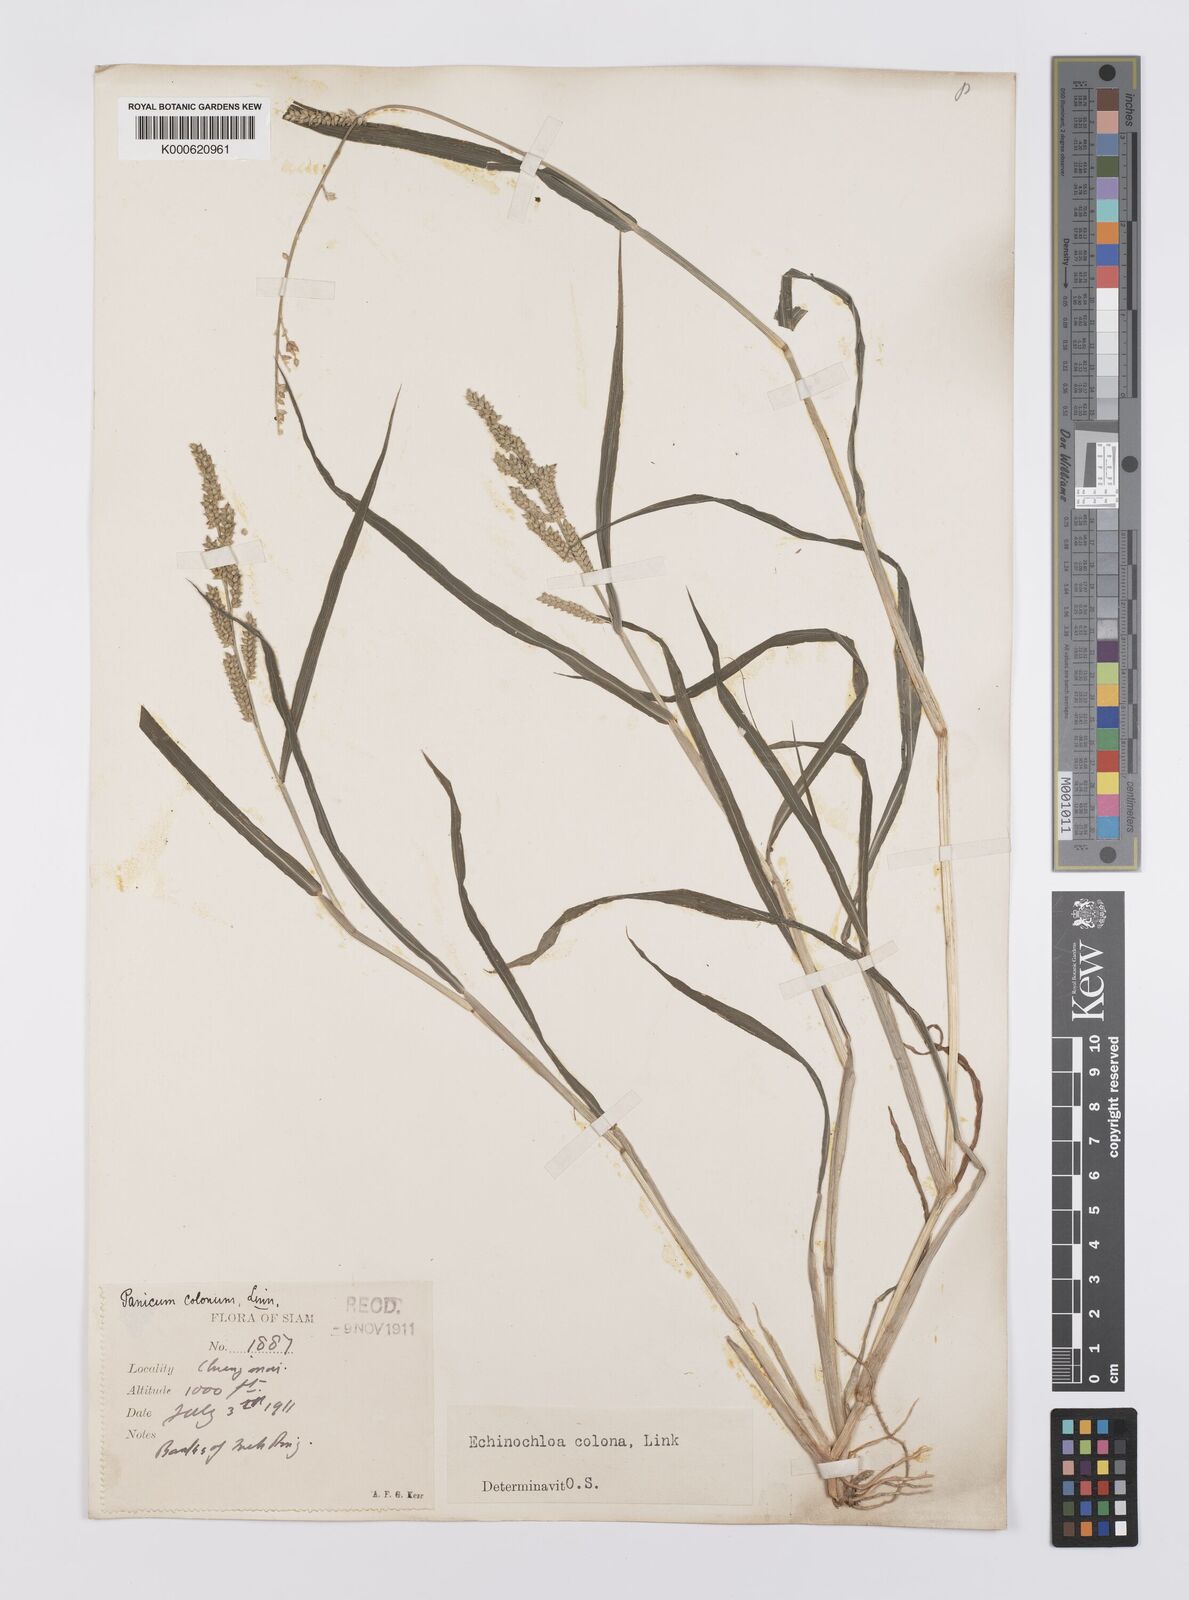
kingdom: Plantae
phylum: Tracheophyta
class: Liliopsida
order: Poales
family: Poaceae
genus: Echinochloa
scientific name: Echinochloa colonum
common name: Jungle rice
